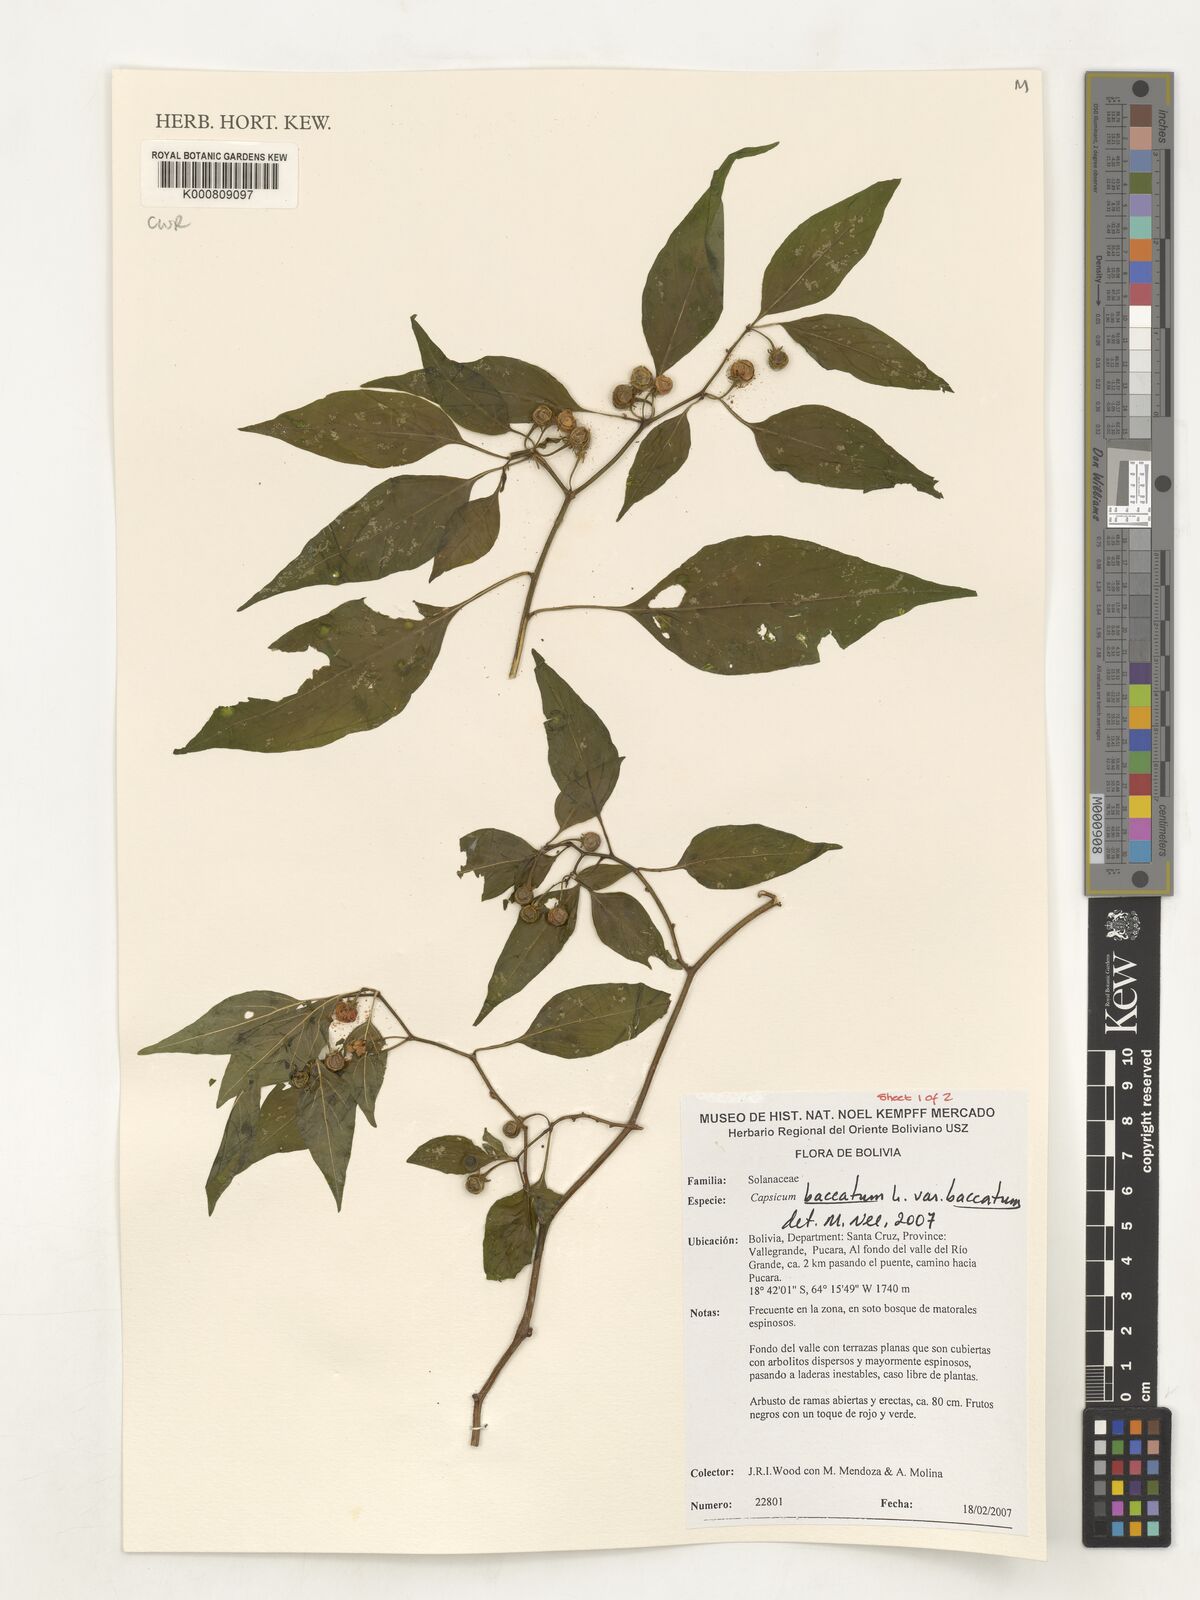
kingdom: Plantae
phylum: Tracheophyta
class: Magnoliopsida
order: Solanales
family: Solanaceae
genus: Capsicum
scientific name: Capsicum baccatum
